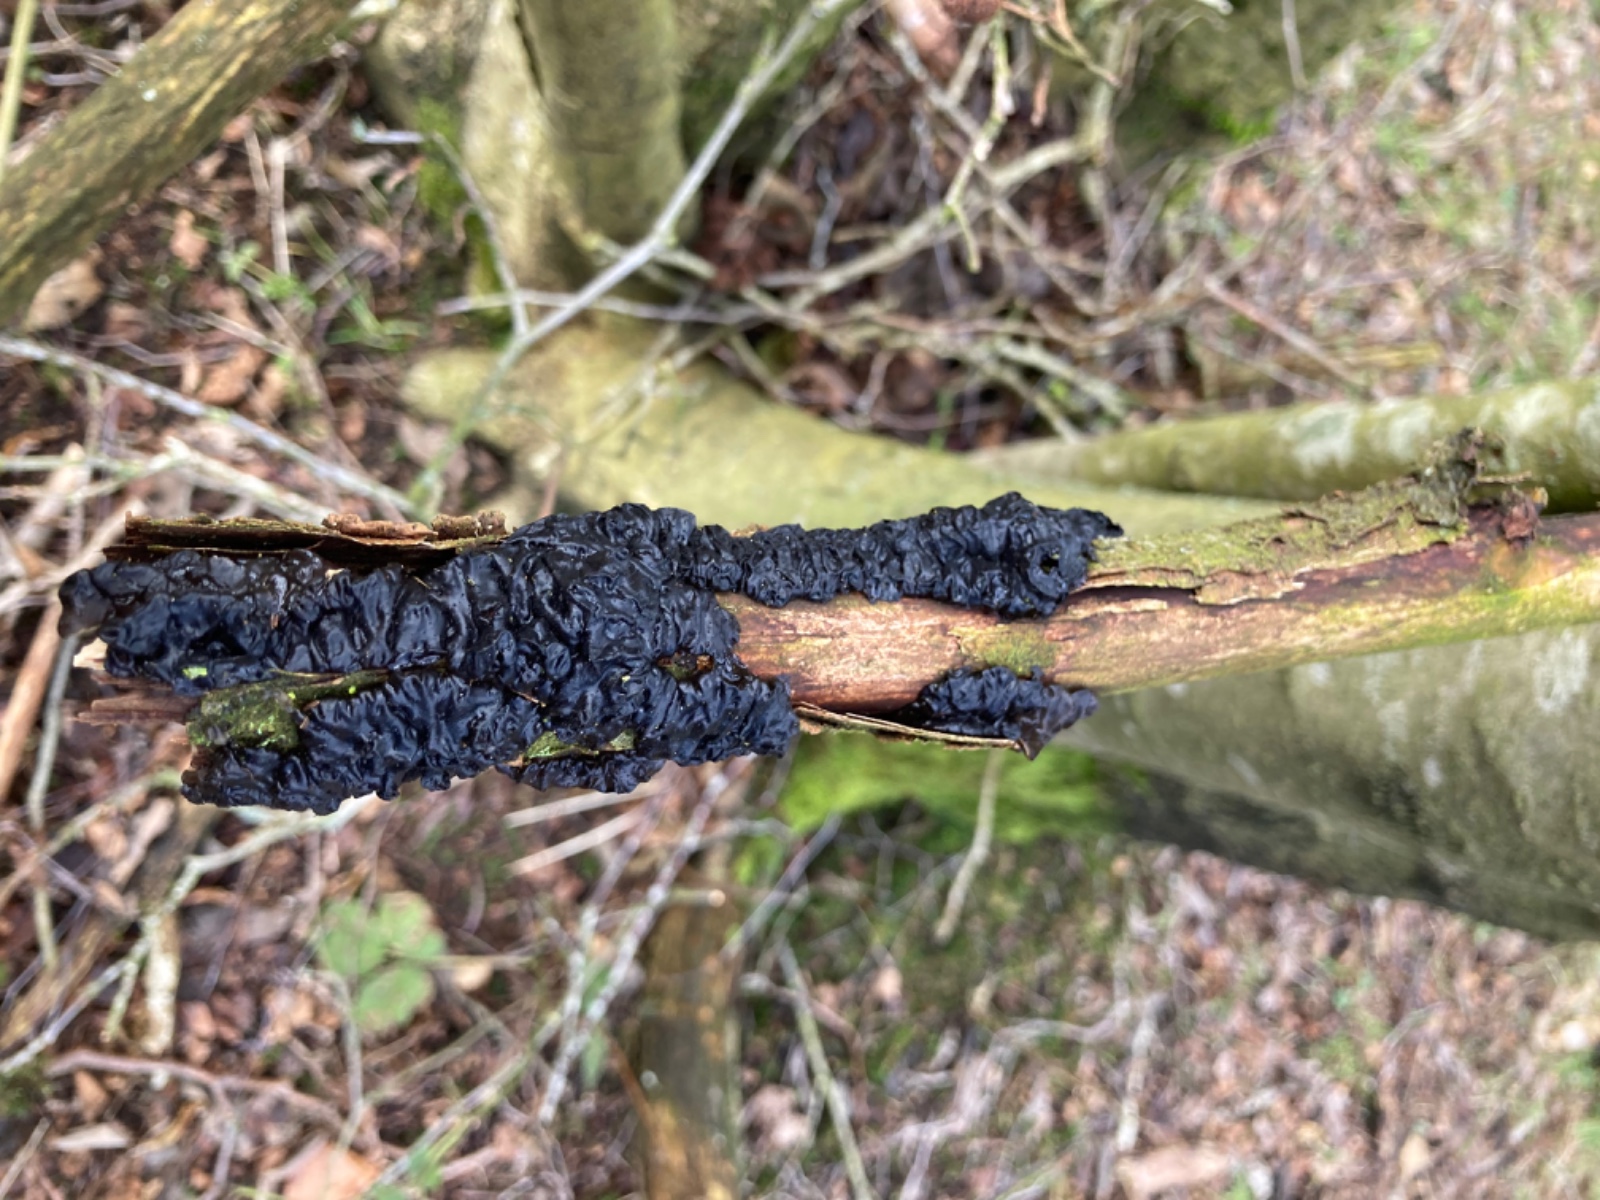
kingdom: Fungi
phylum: Basidiomycota
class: Agaricomycetes
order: Auriculariales
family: Auriculariaceae
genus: Exidia
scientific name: Exidia nigricans
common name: almindelig bævretop
